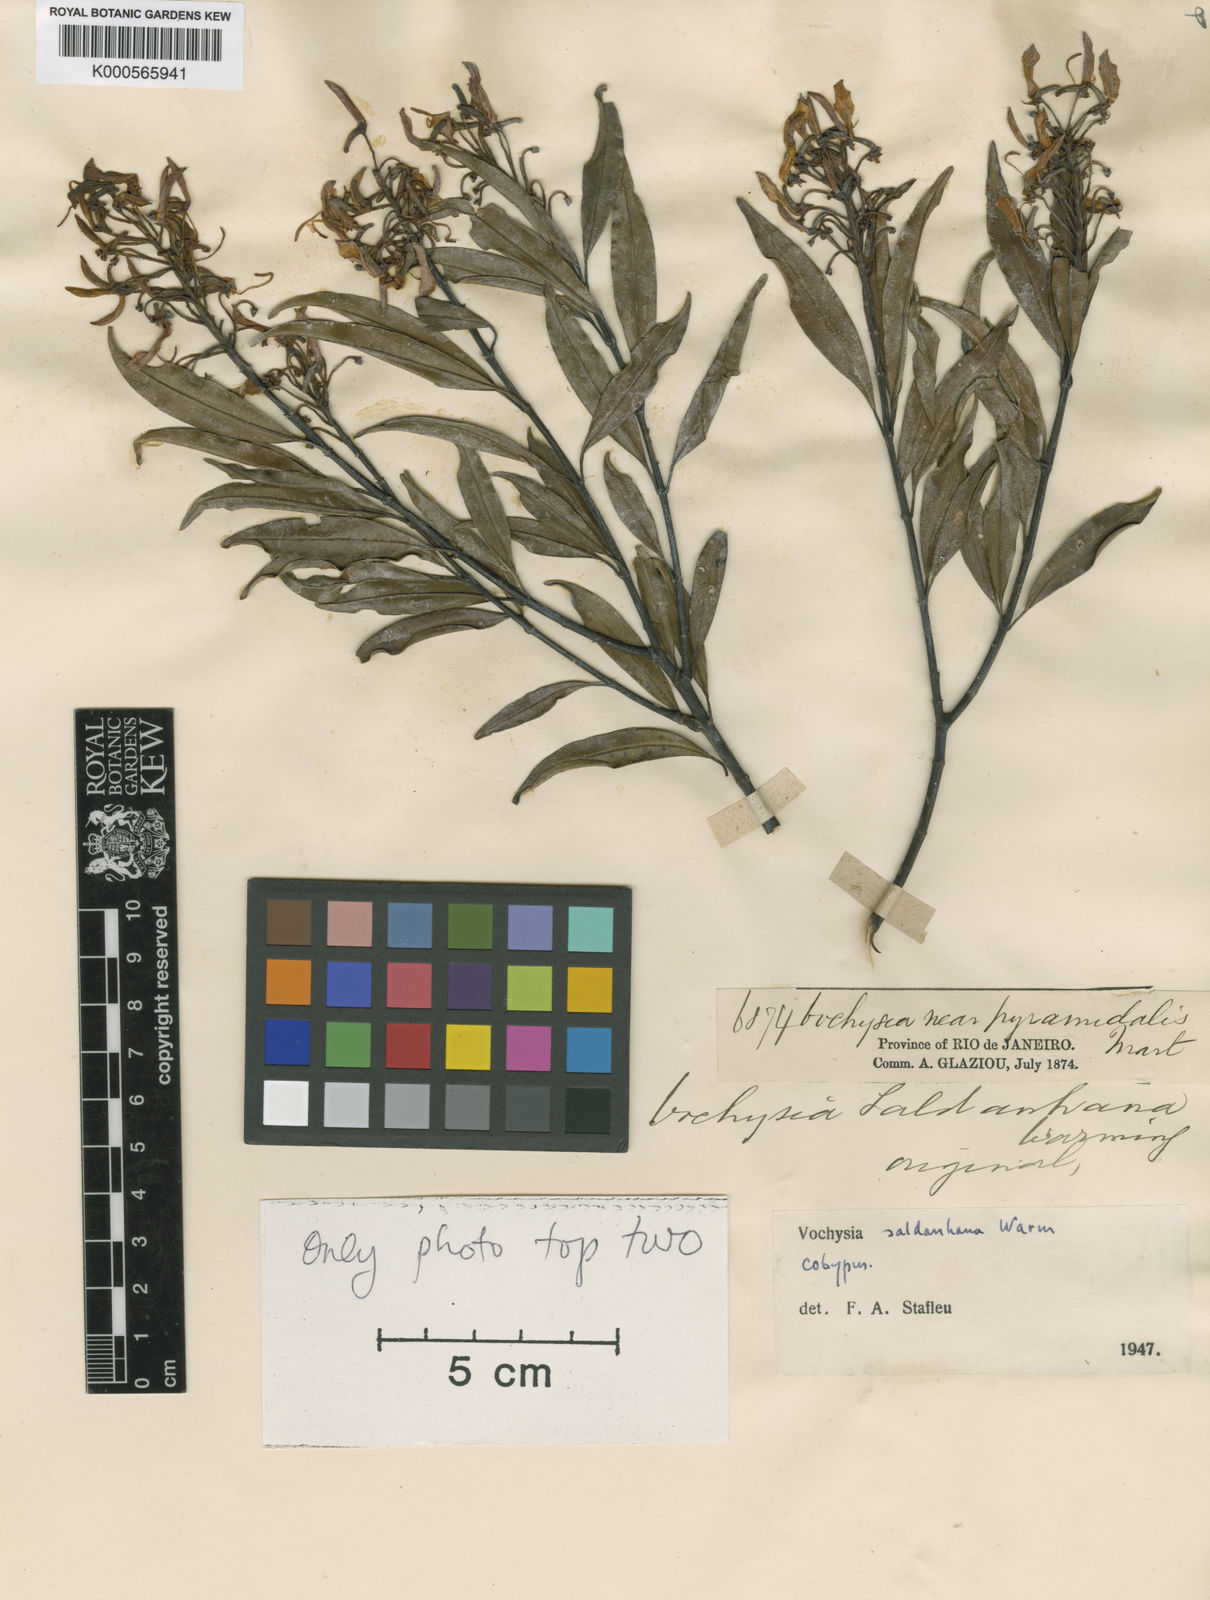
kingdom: Plantae
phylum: Tracheophyta
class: Magnoliopsida
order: Myrtales
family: Vochysiaceae
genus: Vochysia
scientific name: Vochysia saldanhana
